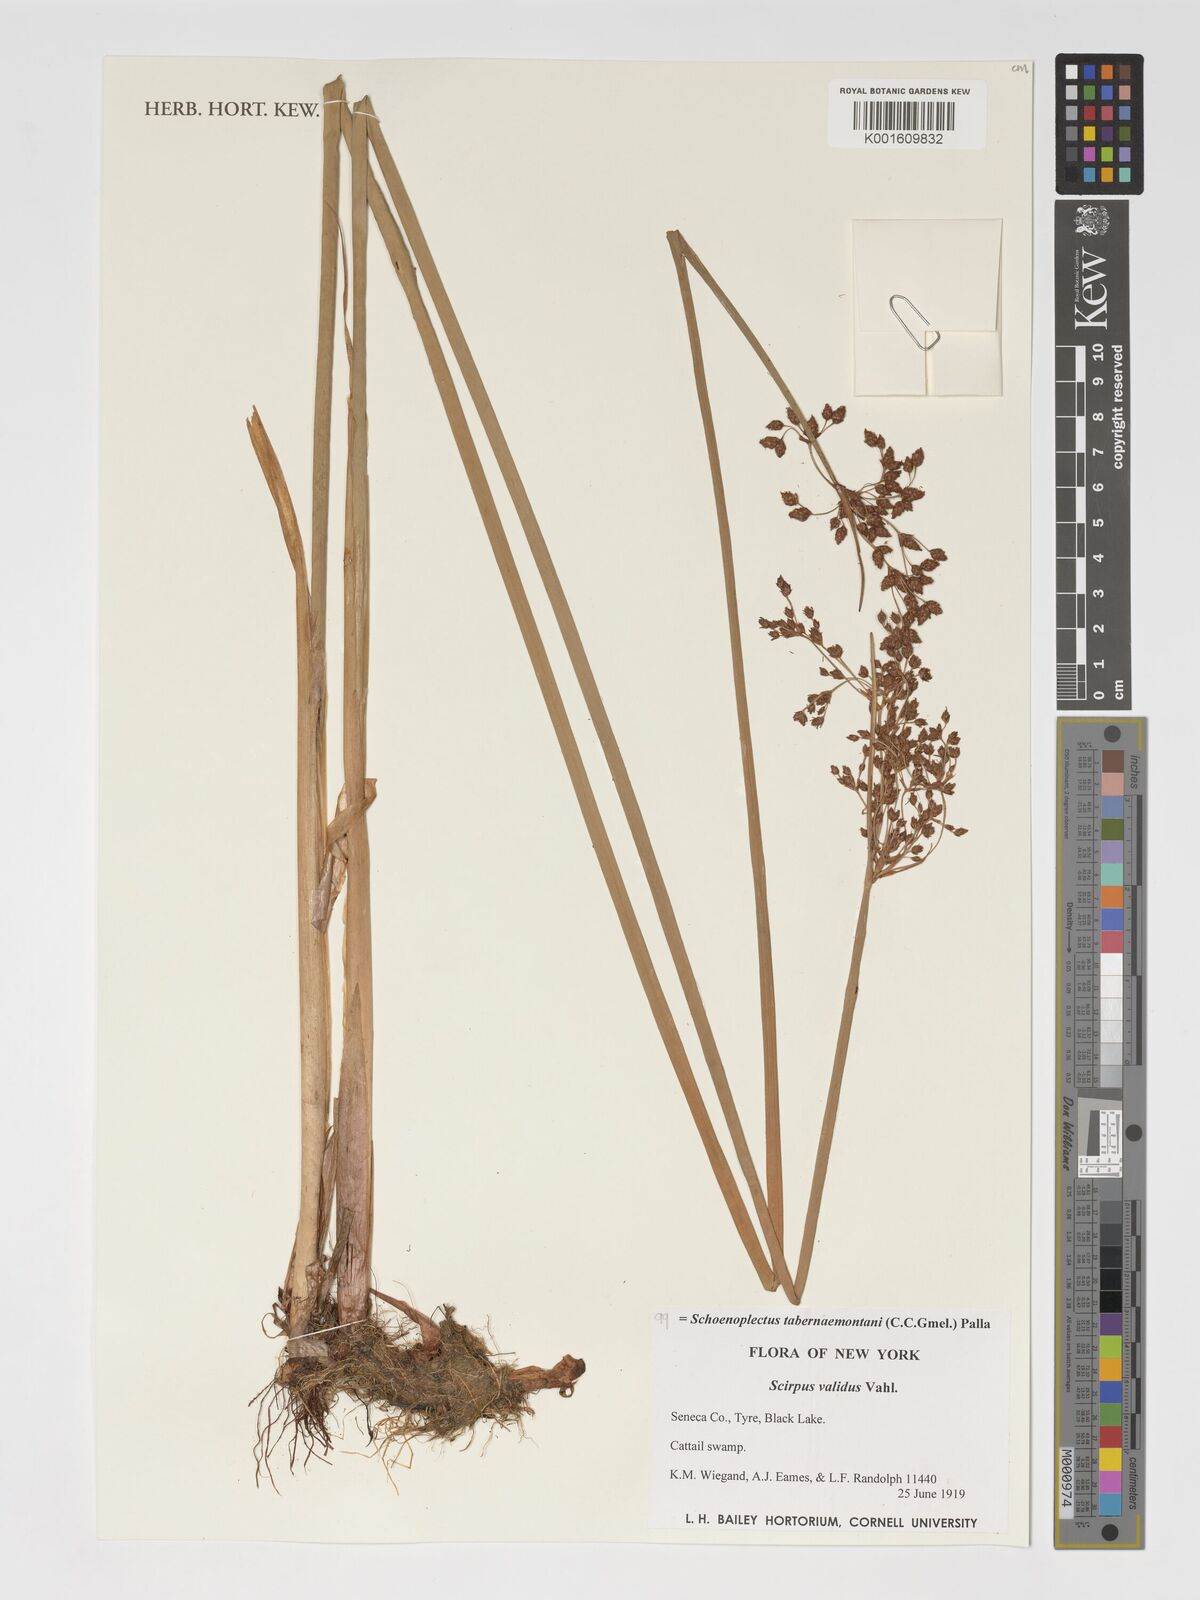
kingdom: Plantae
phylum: Tracheophyta
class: Liliopsida
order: Poales
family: Cyperaceae
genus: Schoenoplectus
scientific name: Schoenoplectus tabernaemontani
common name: Grey club-rush
